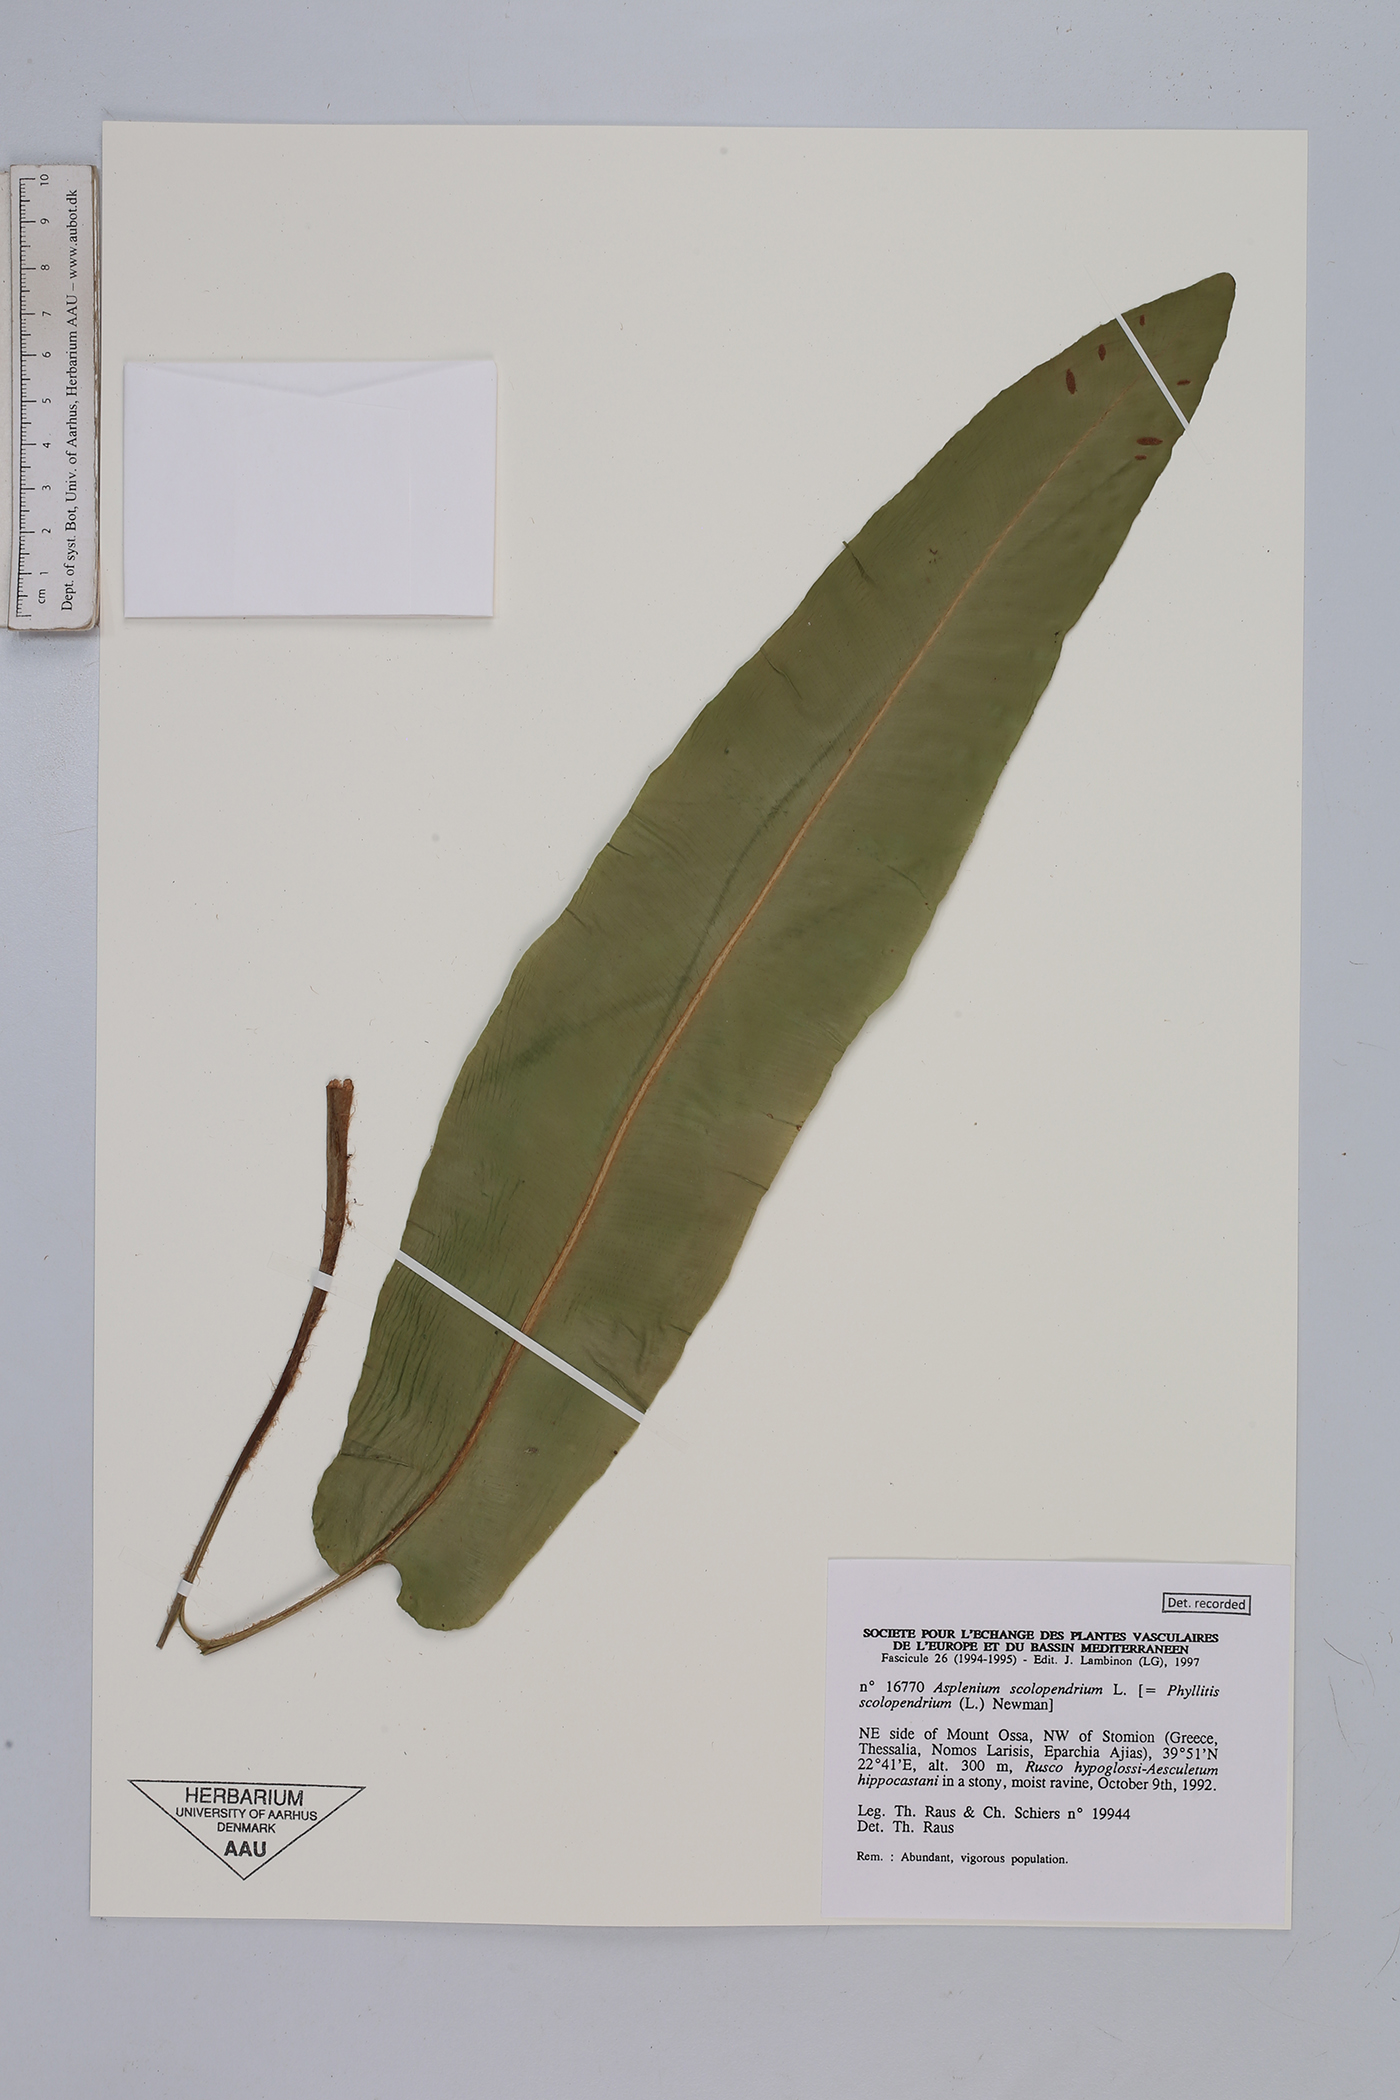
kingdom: Plantae
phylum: Tracheophyta
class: Polypodiopsida
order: Polypodiales
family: Aspleniaceae
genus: Asplenium
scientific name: Asplenium scolopendrium
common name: Hart's-tongue fern
